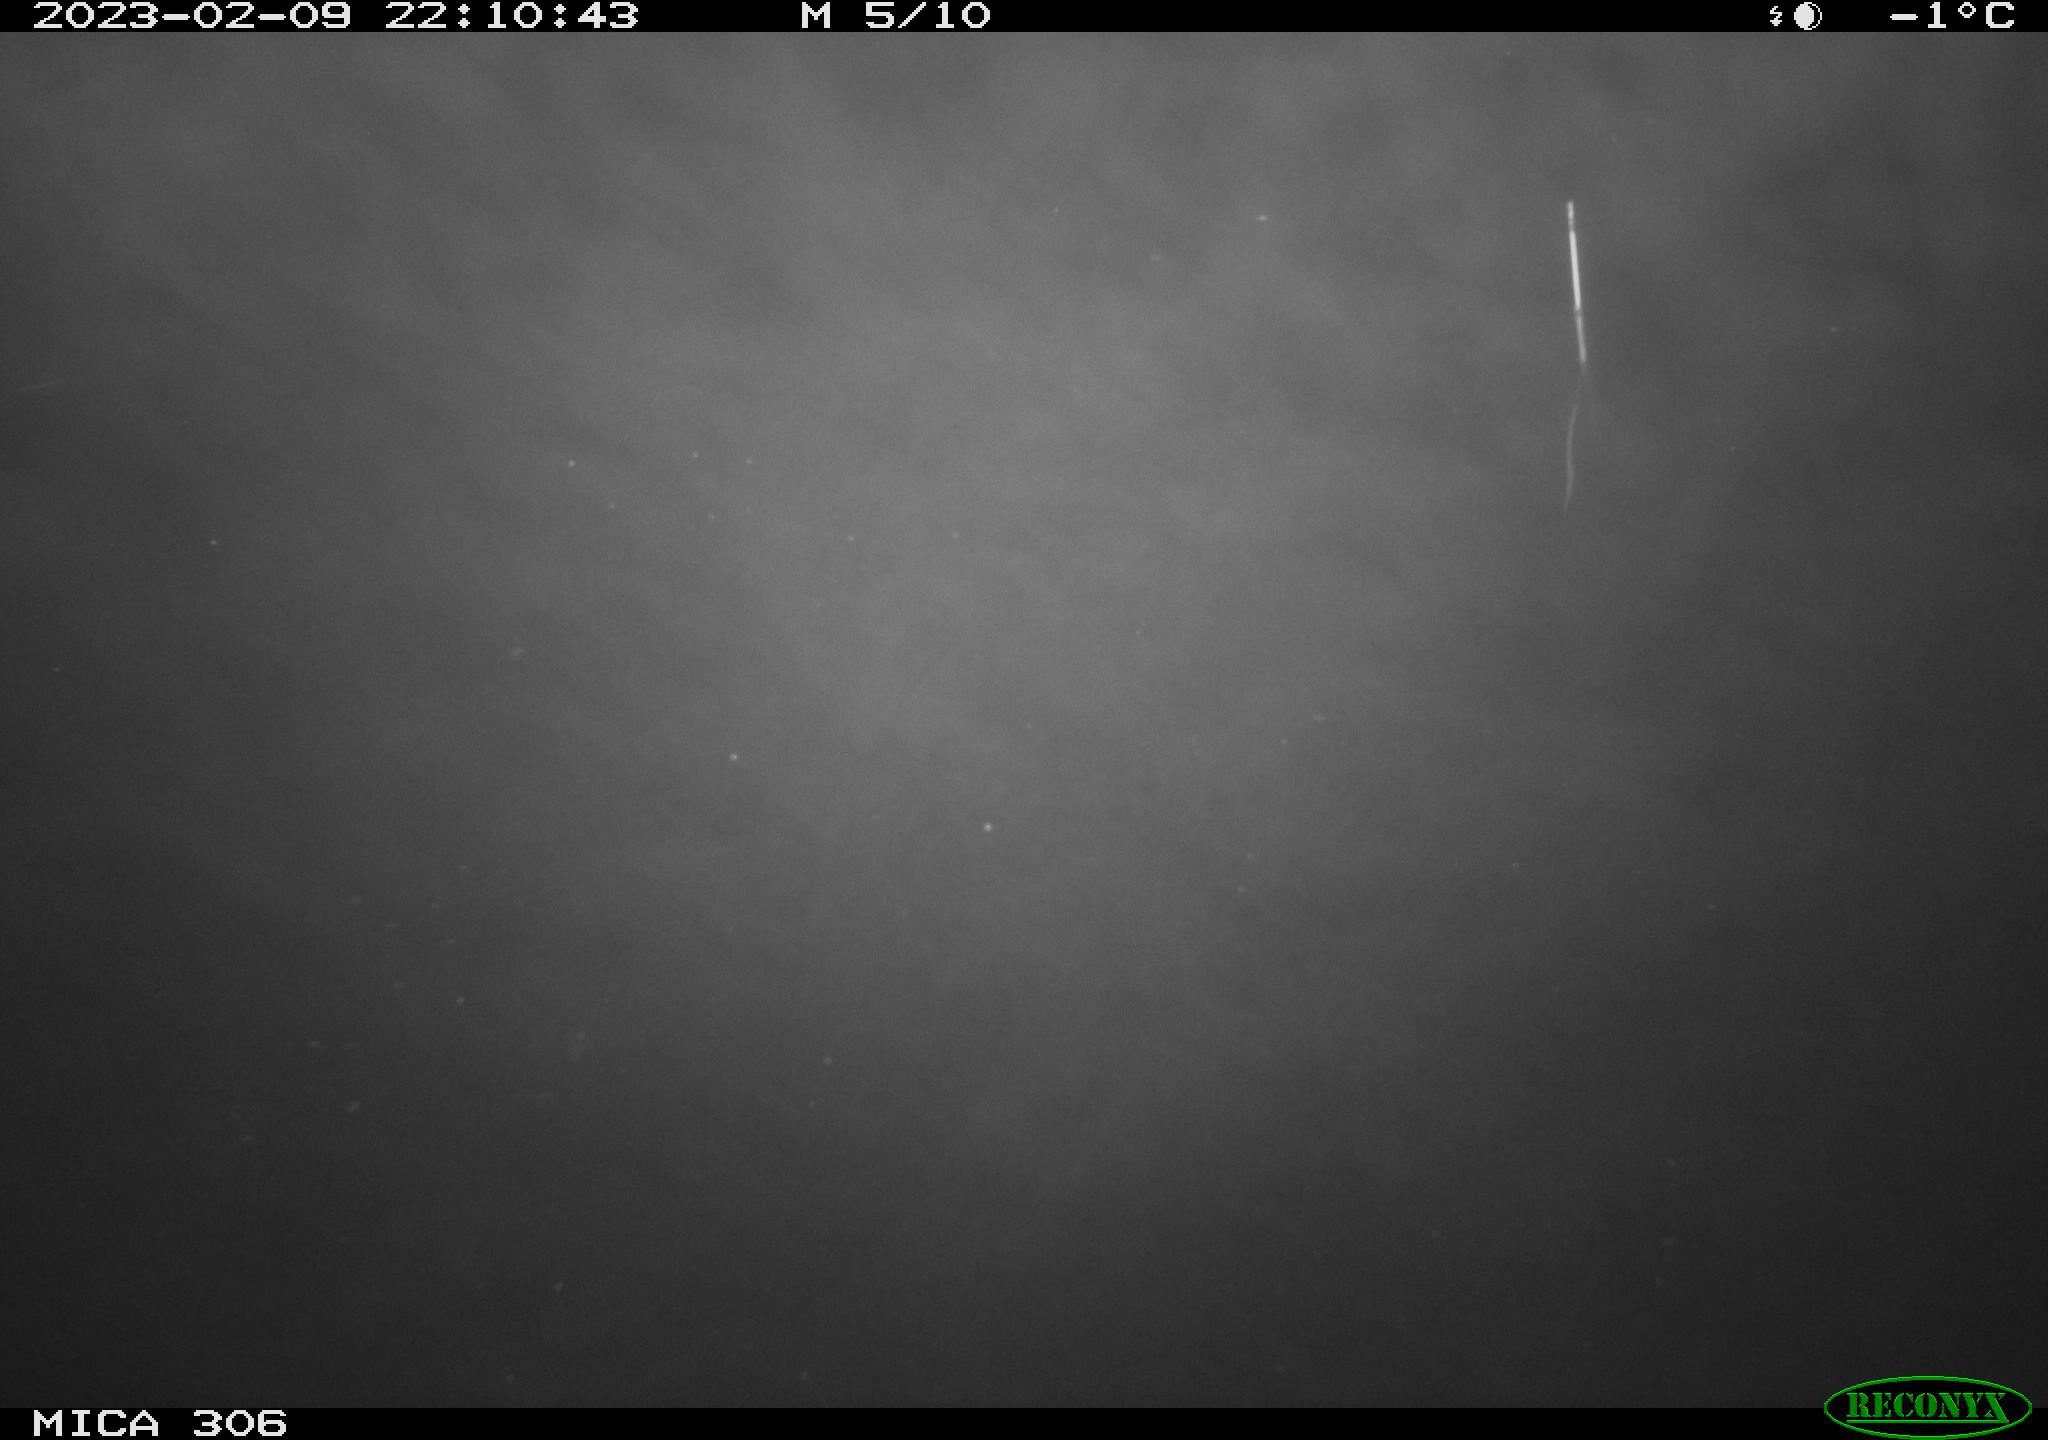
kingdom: Animalia
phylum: Chordata
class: Mammalia
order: Rodentia
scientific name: Rodentia
